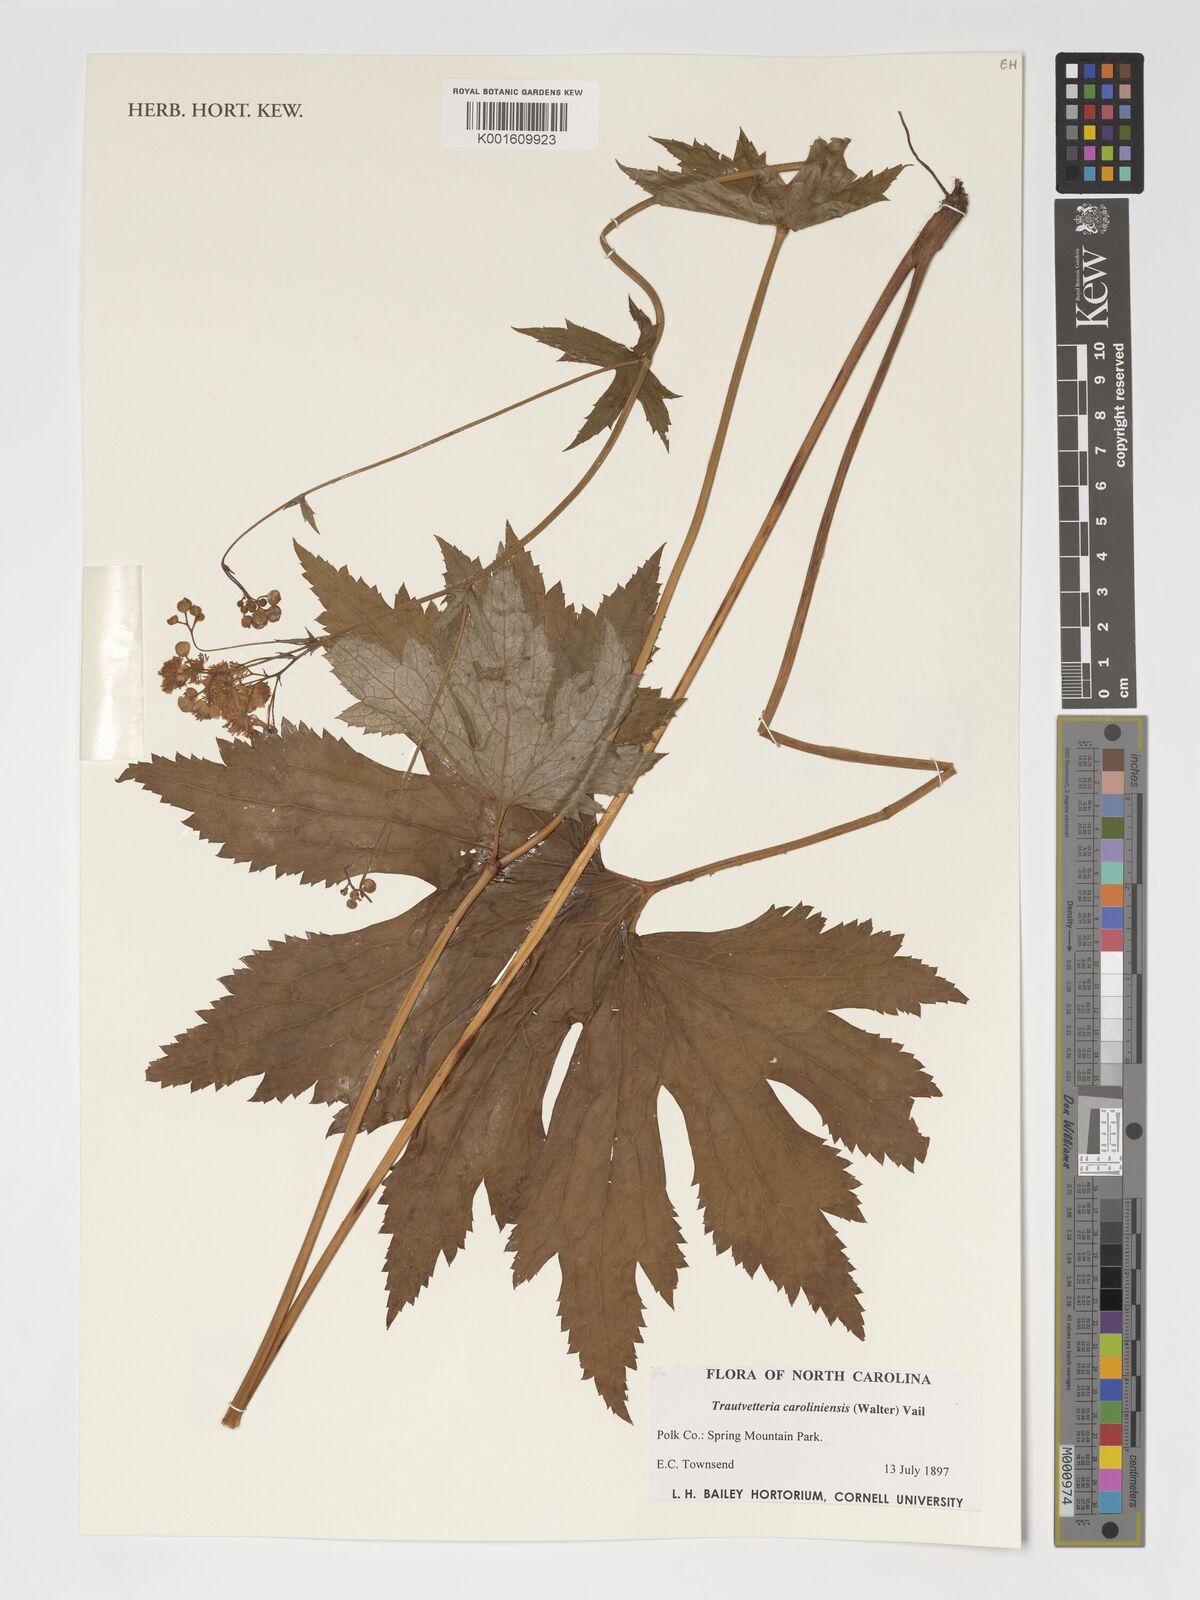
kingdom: Plantae
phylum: Tracheophyta
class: Magnoliopsida
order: Ranunculales
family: Ranunculaceae
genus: Trautvetteria
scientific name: Trautvetteria carolinensis
